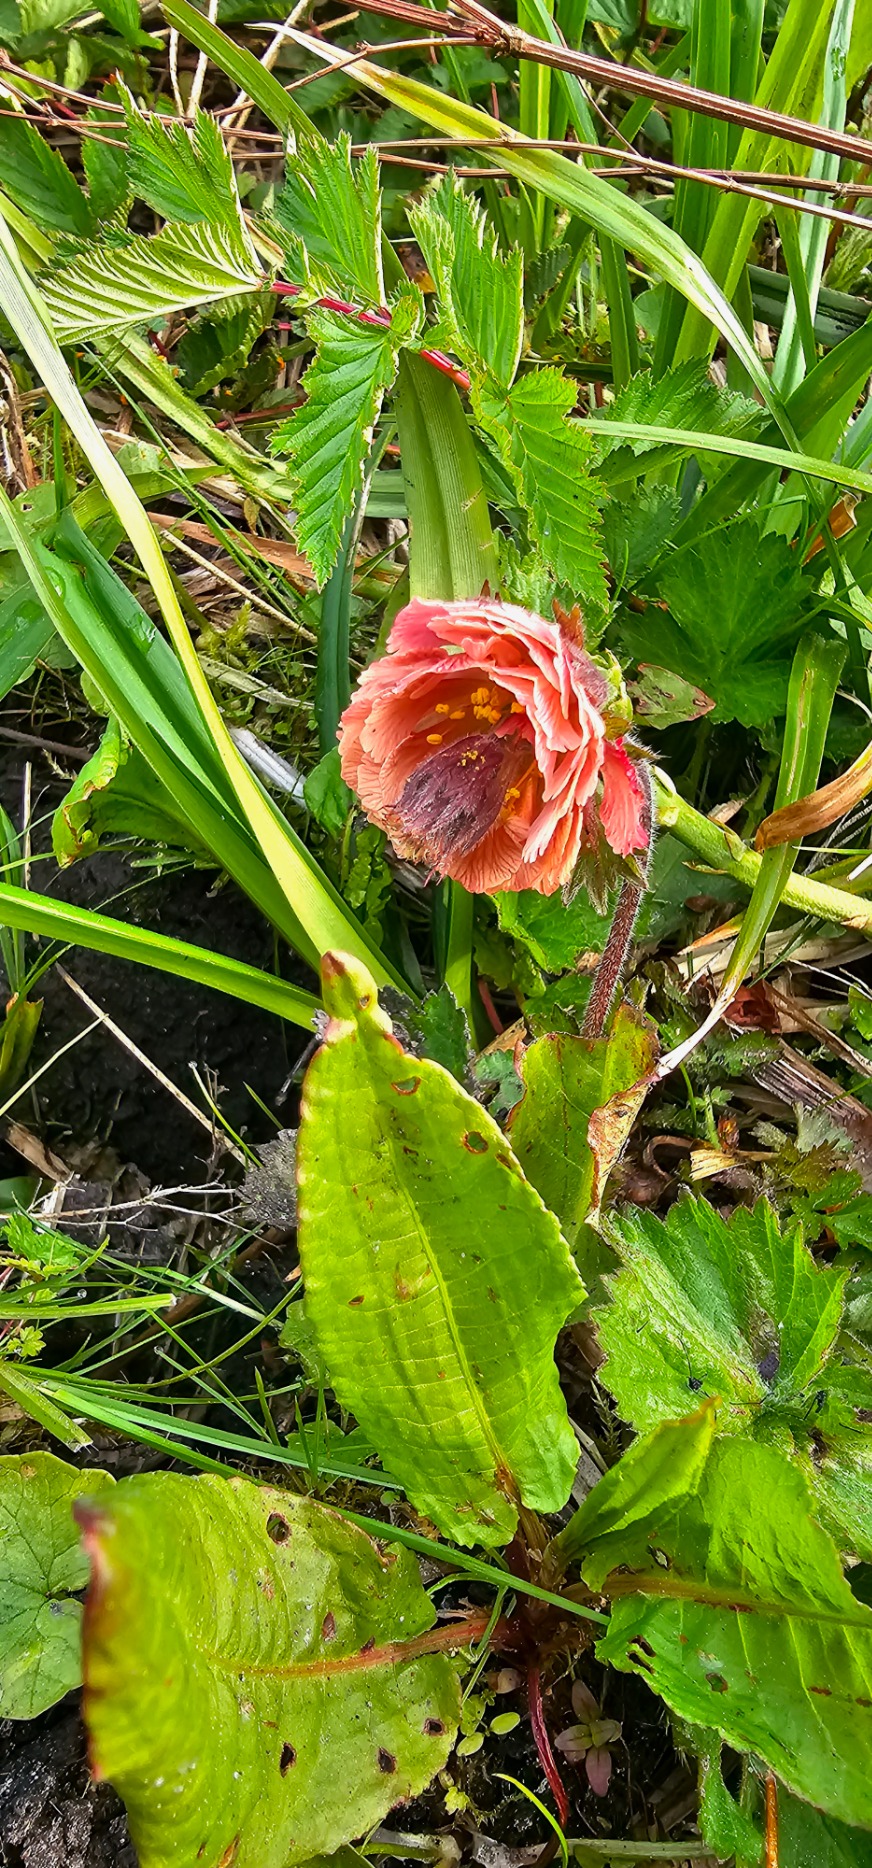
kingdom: Plantae
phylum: Tracheophyta
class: Magnoliopsida
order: Rosales
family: Rosaceae
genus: Geum
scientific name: Geum rivale
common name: Eng-nellikerod
